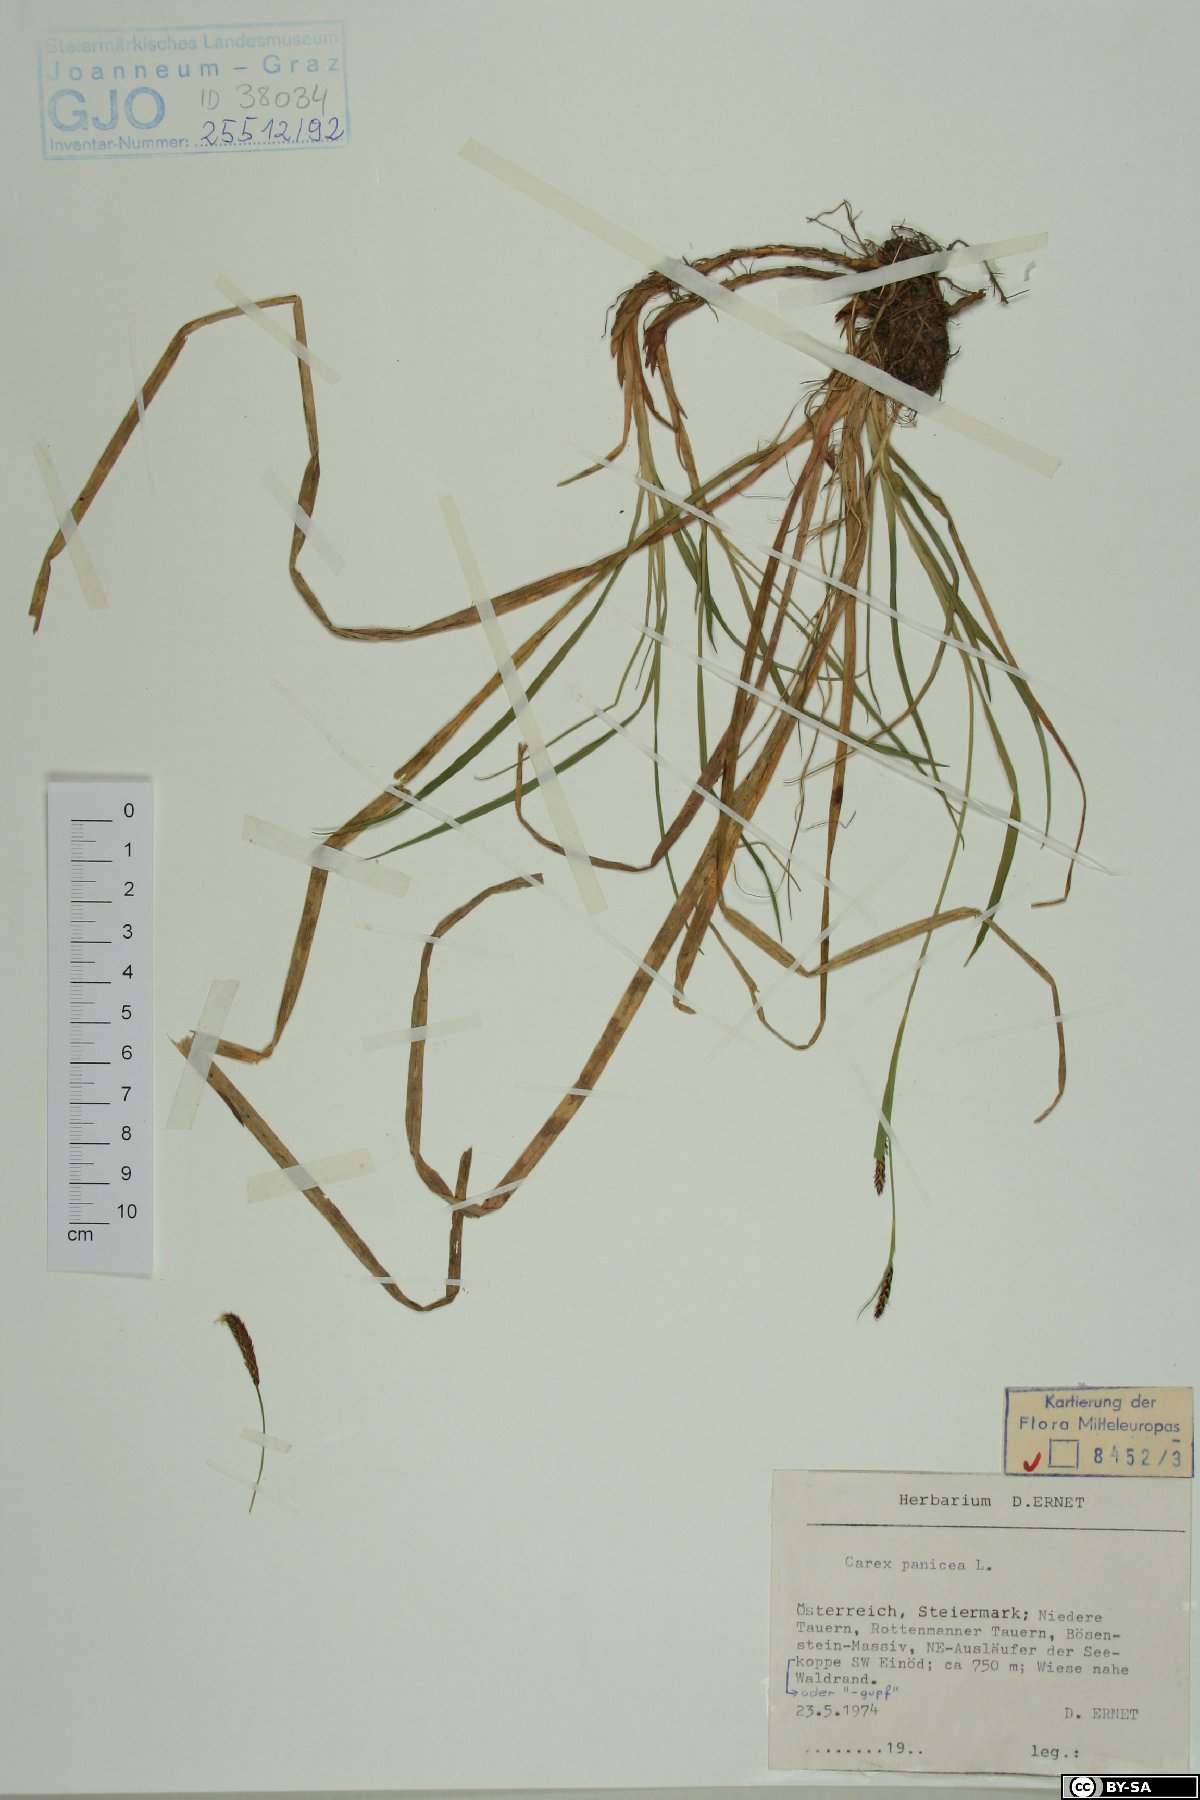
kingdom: Plantae
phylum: Tracheophyta
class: Liliopsida
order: Poales
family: Cyperaceae
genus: Carex
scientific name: Carex panicea
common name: Carnation sedge
